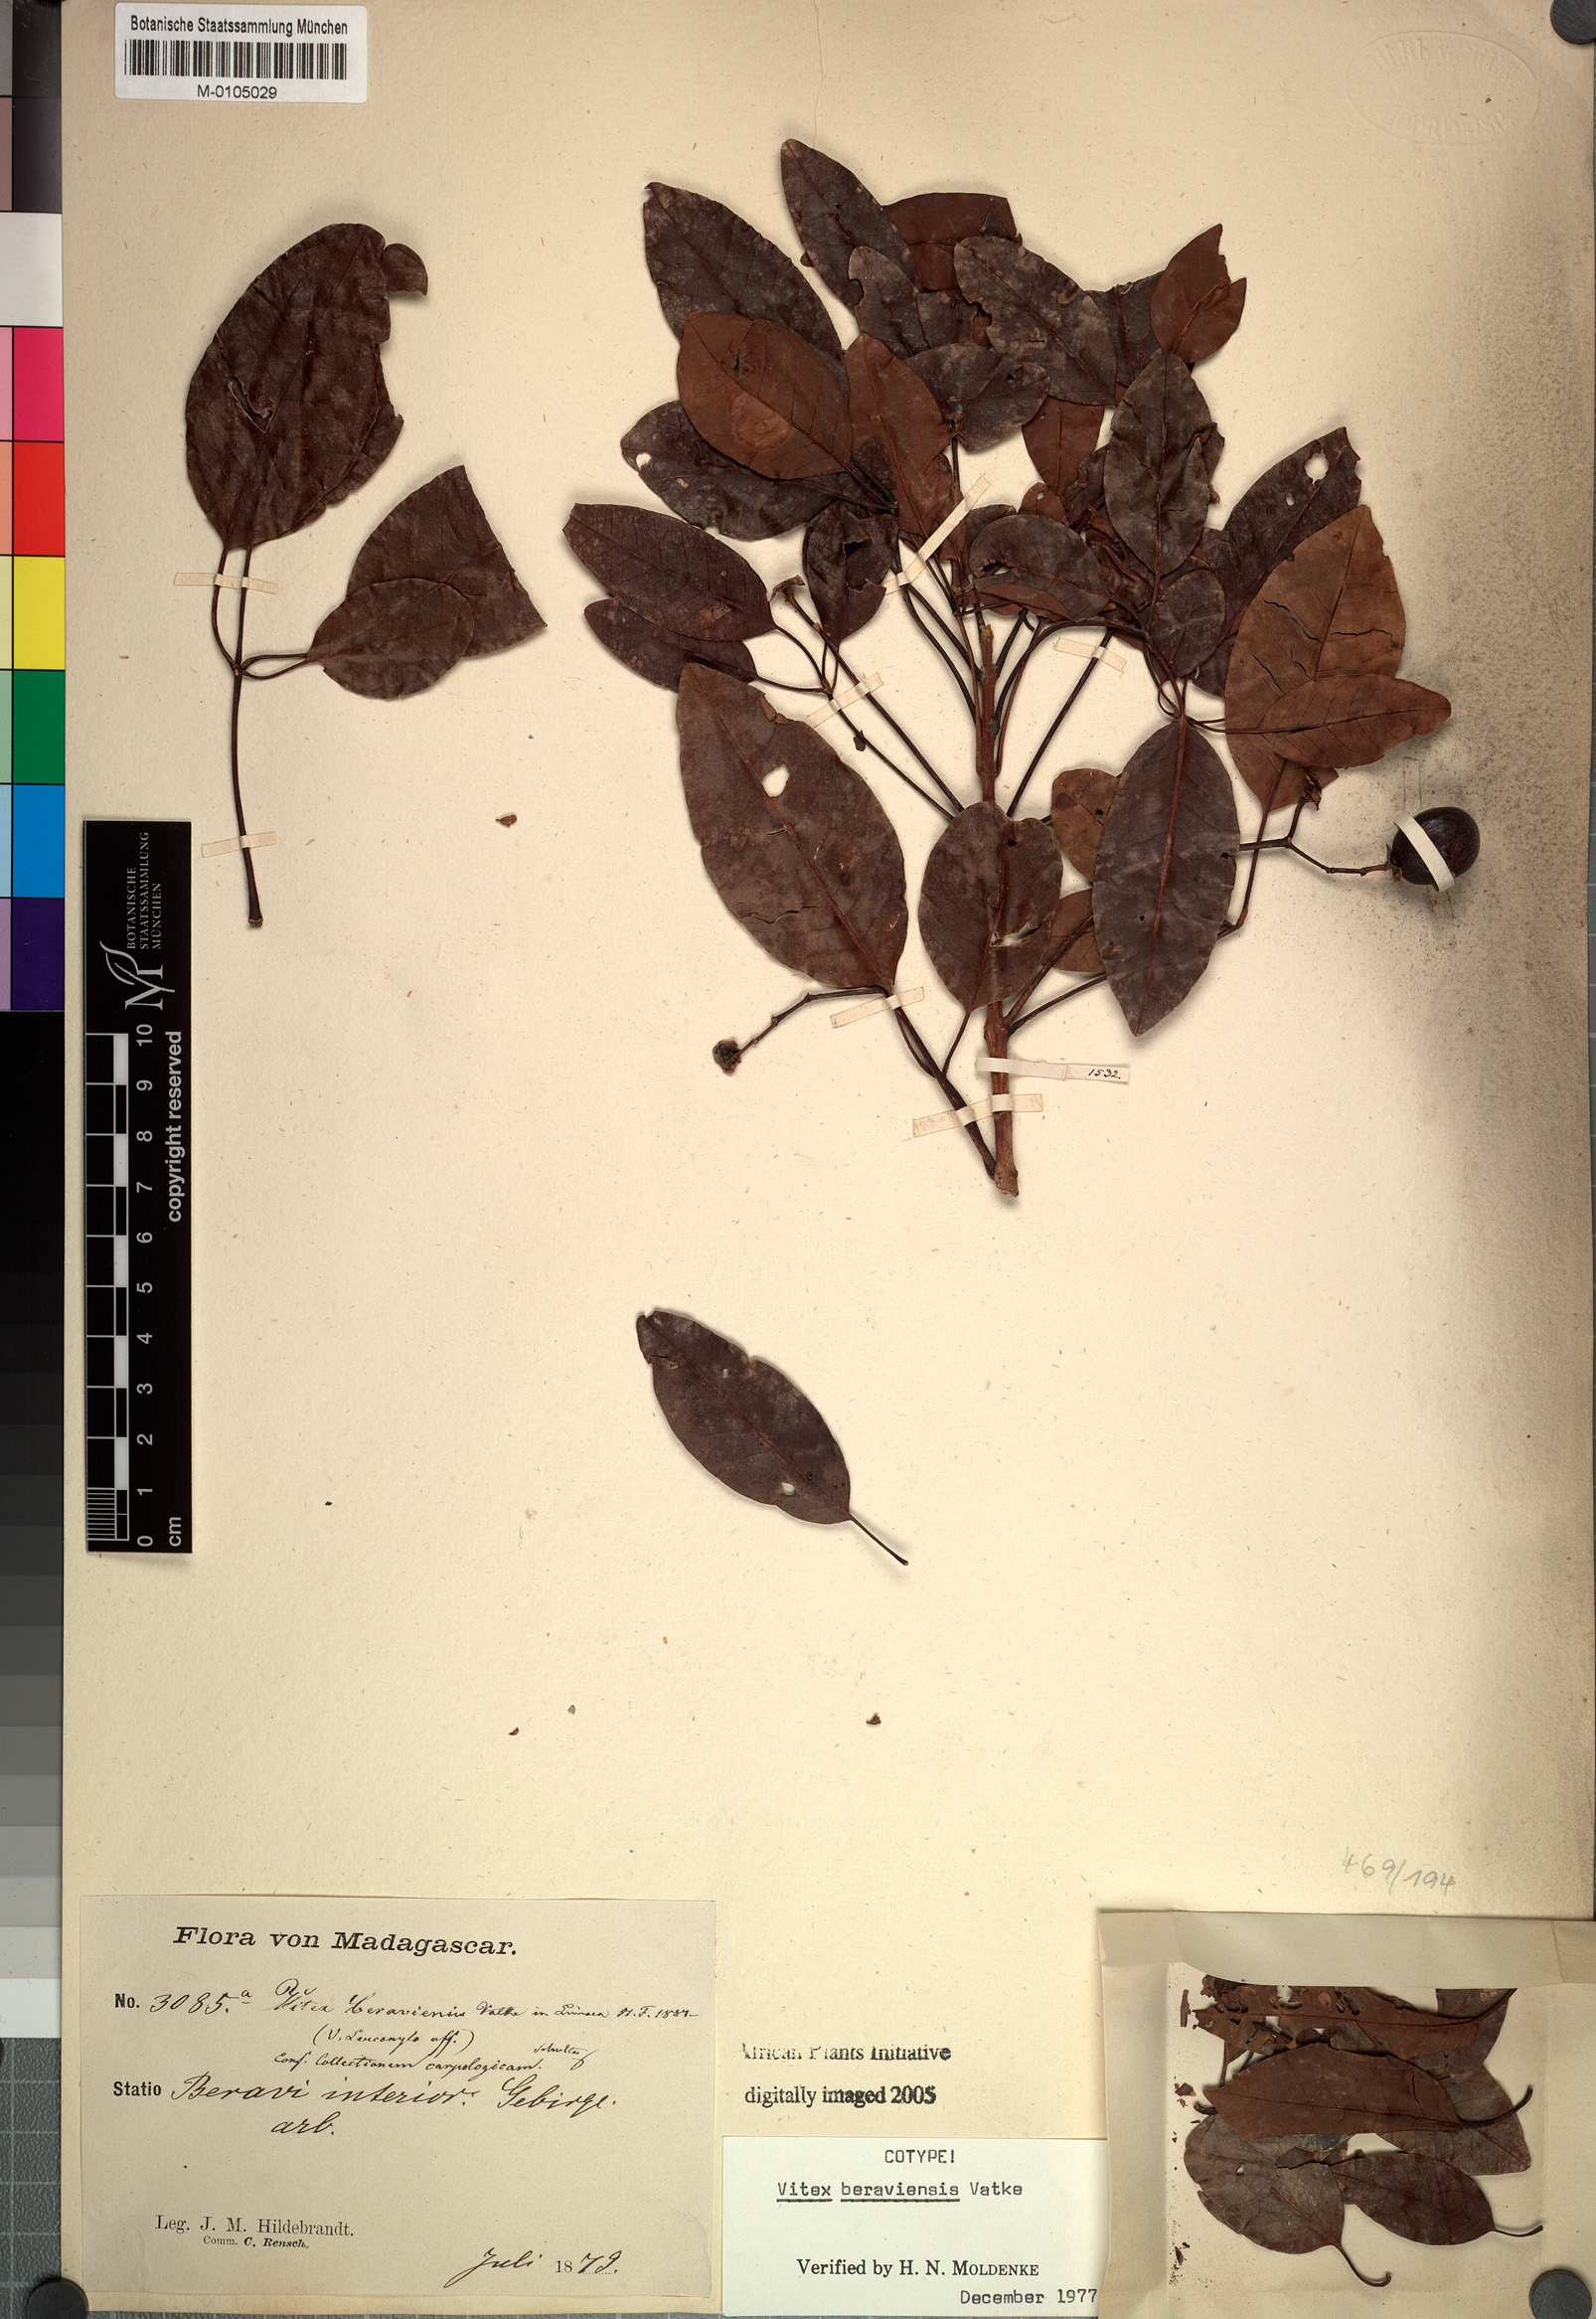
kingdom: Plantae
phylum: Tracheophyta
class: Magnoliopsida
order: Lamiales
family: Lamiaceae
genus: Vitex
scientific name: Vitex beraviensis
